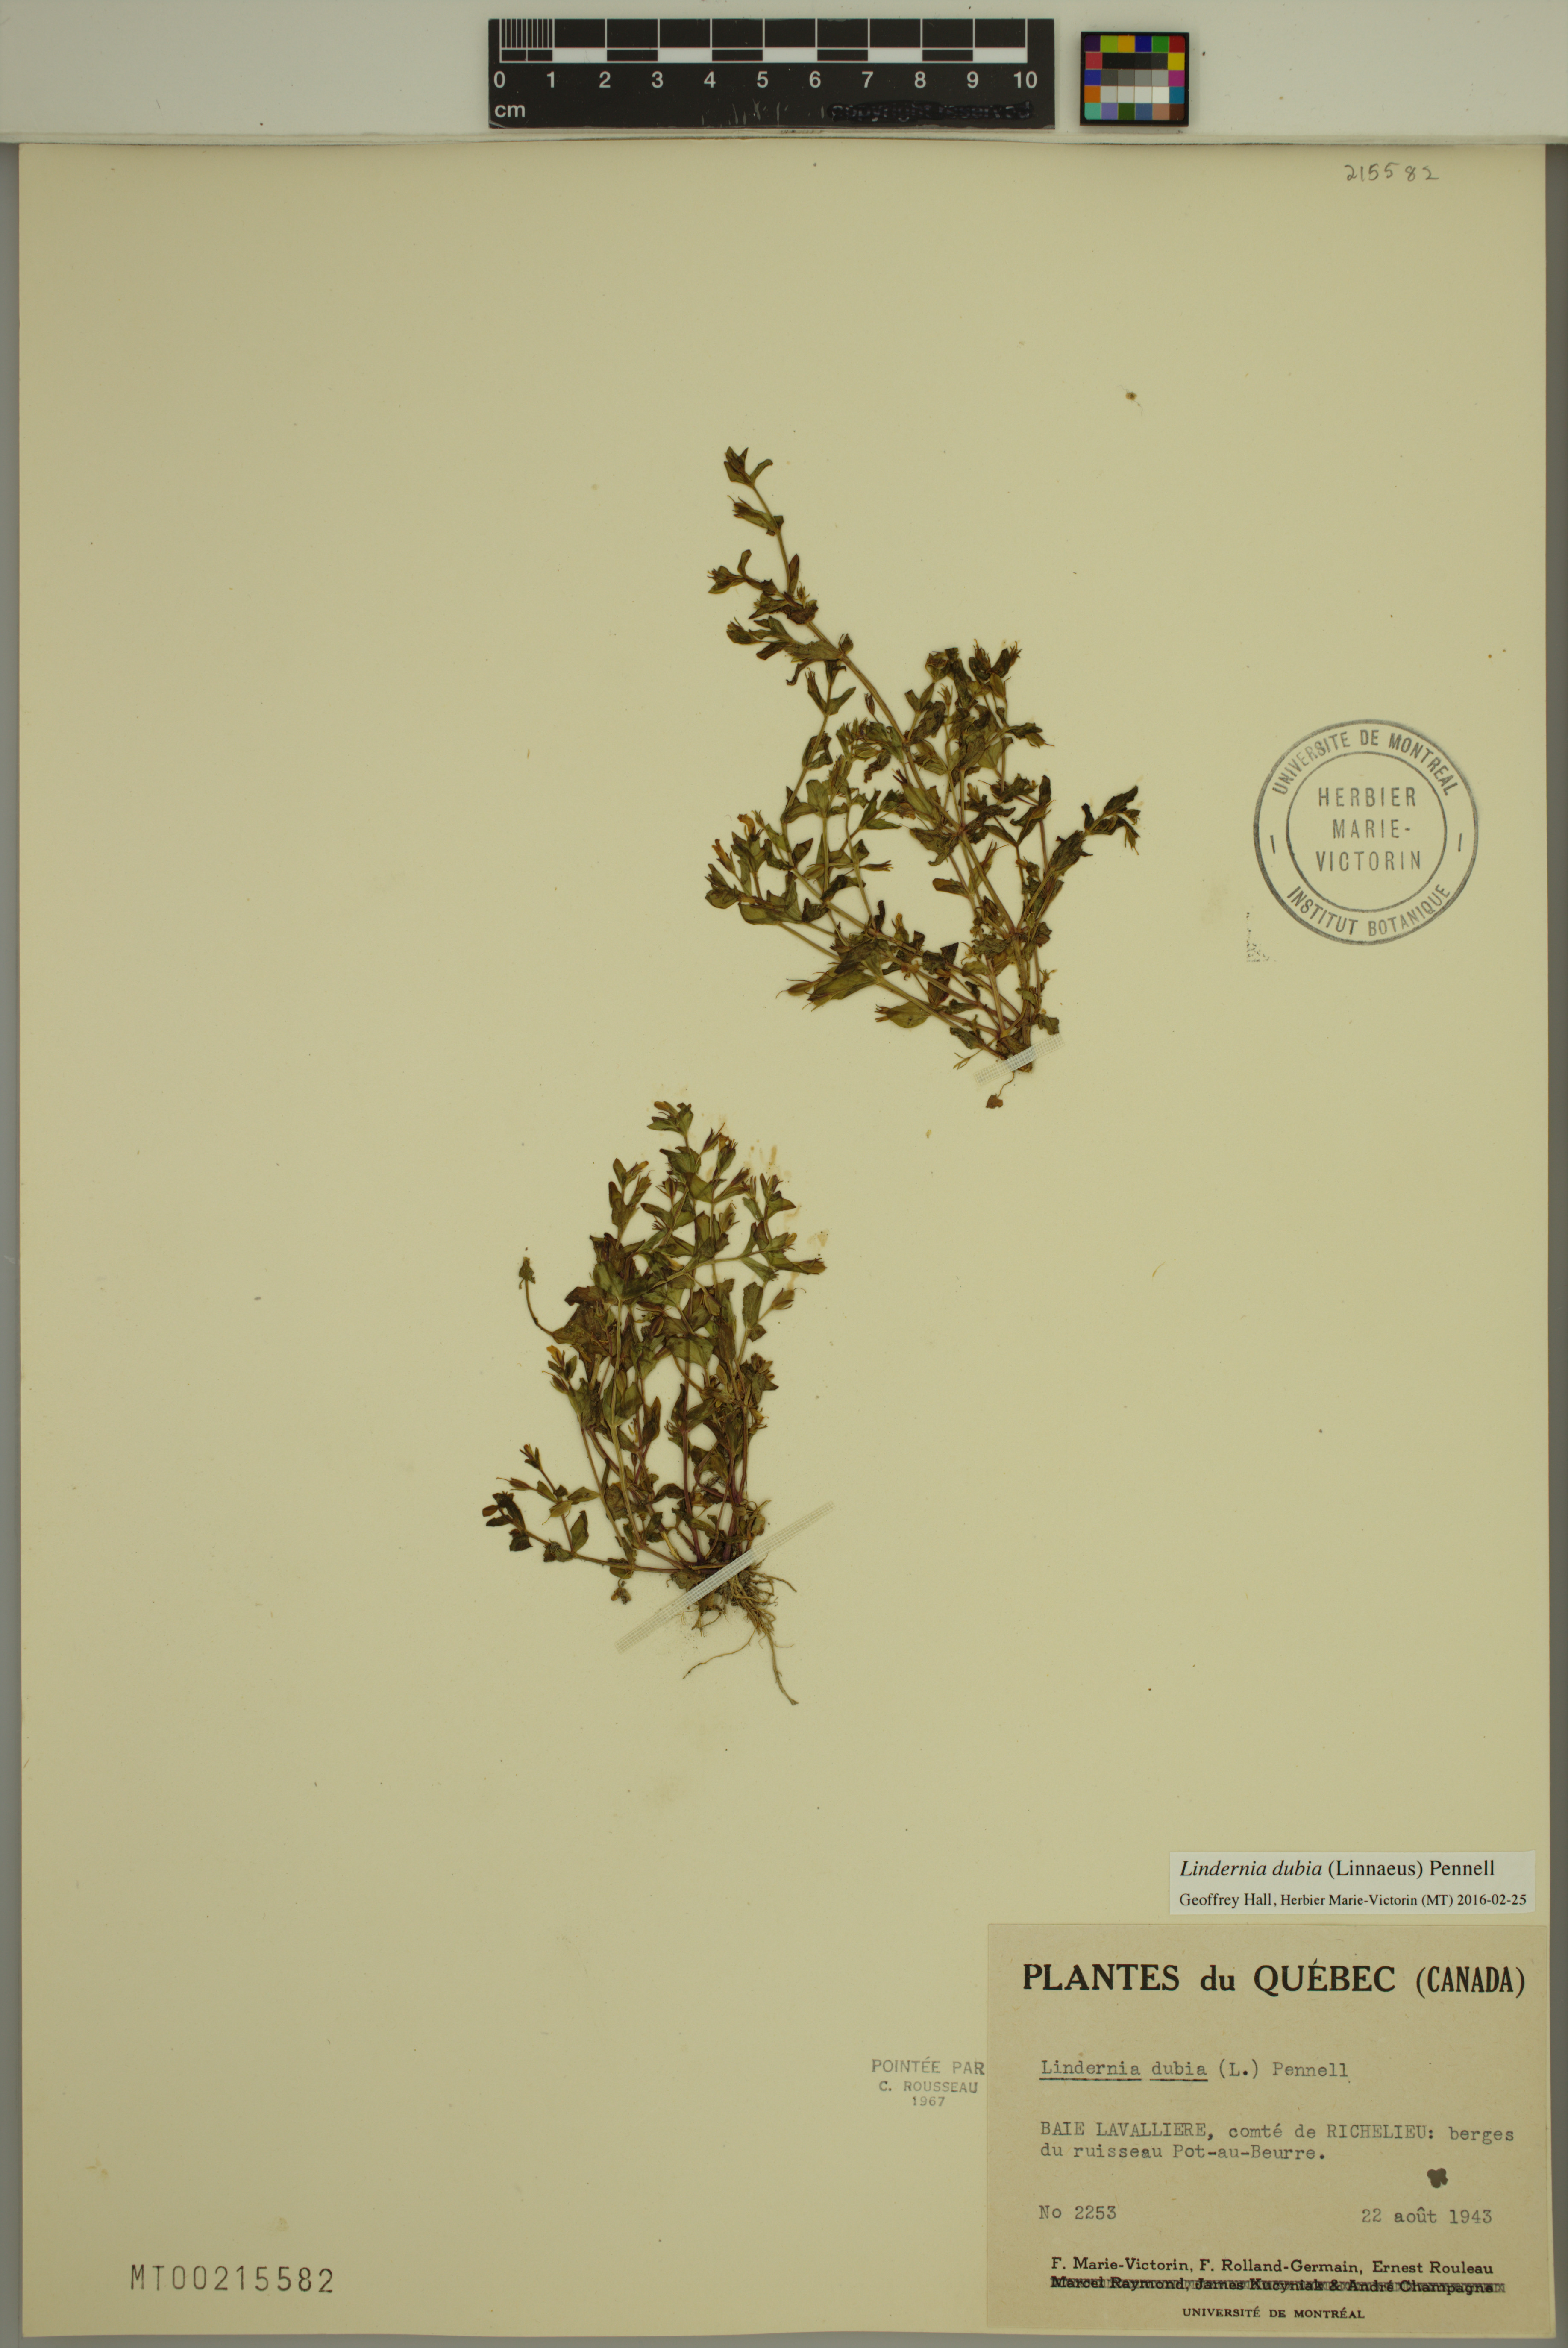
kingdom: Plantae
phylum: Tracheophyta
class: Magnoliopsida
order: Lamiales
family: Linderniaceae
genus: Lindernia
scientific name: Lindernia dubia
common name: Annual false pimpernel
